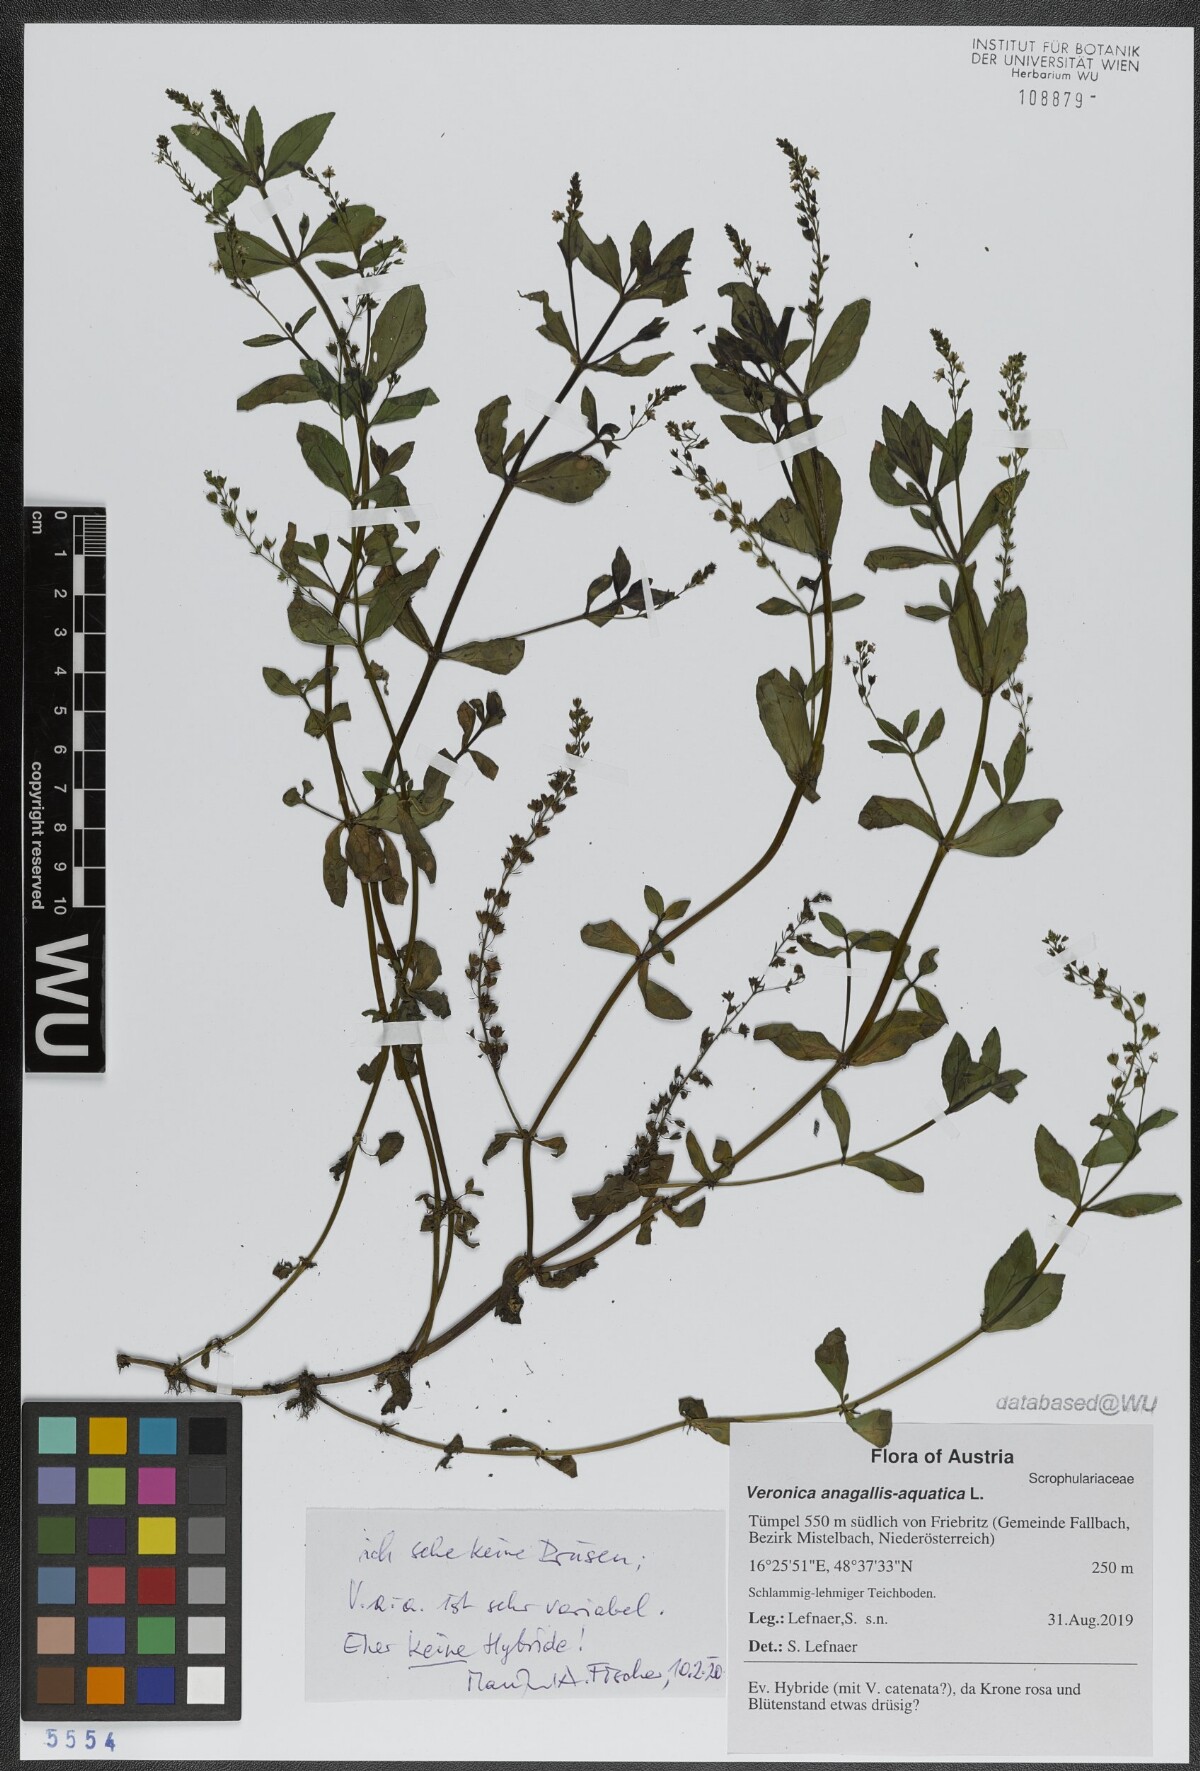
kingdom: Plantae
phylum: Tracheophyta
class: Magnoliopsida
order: Lamiales
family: Plantaginaceae
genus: Veronica
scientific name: Veronica anagallis-aquatica
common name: Water speedwell
